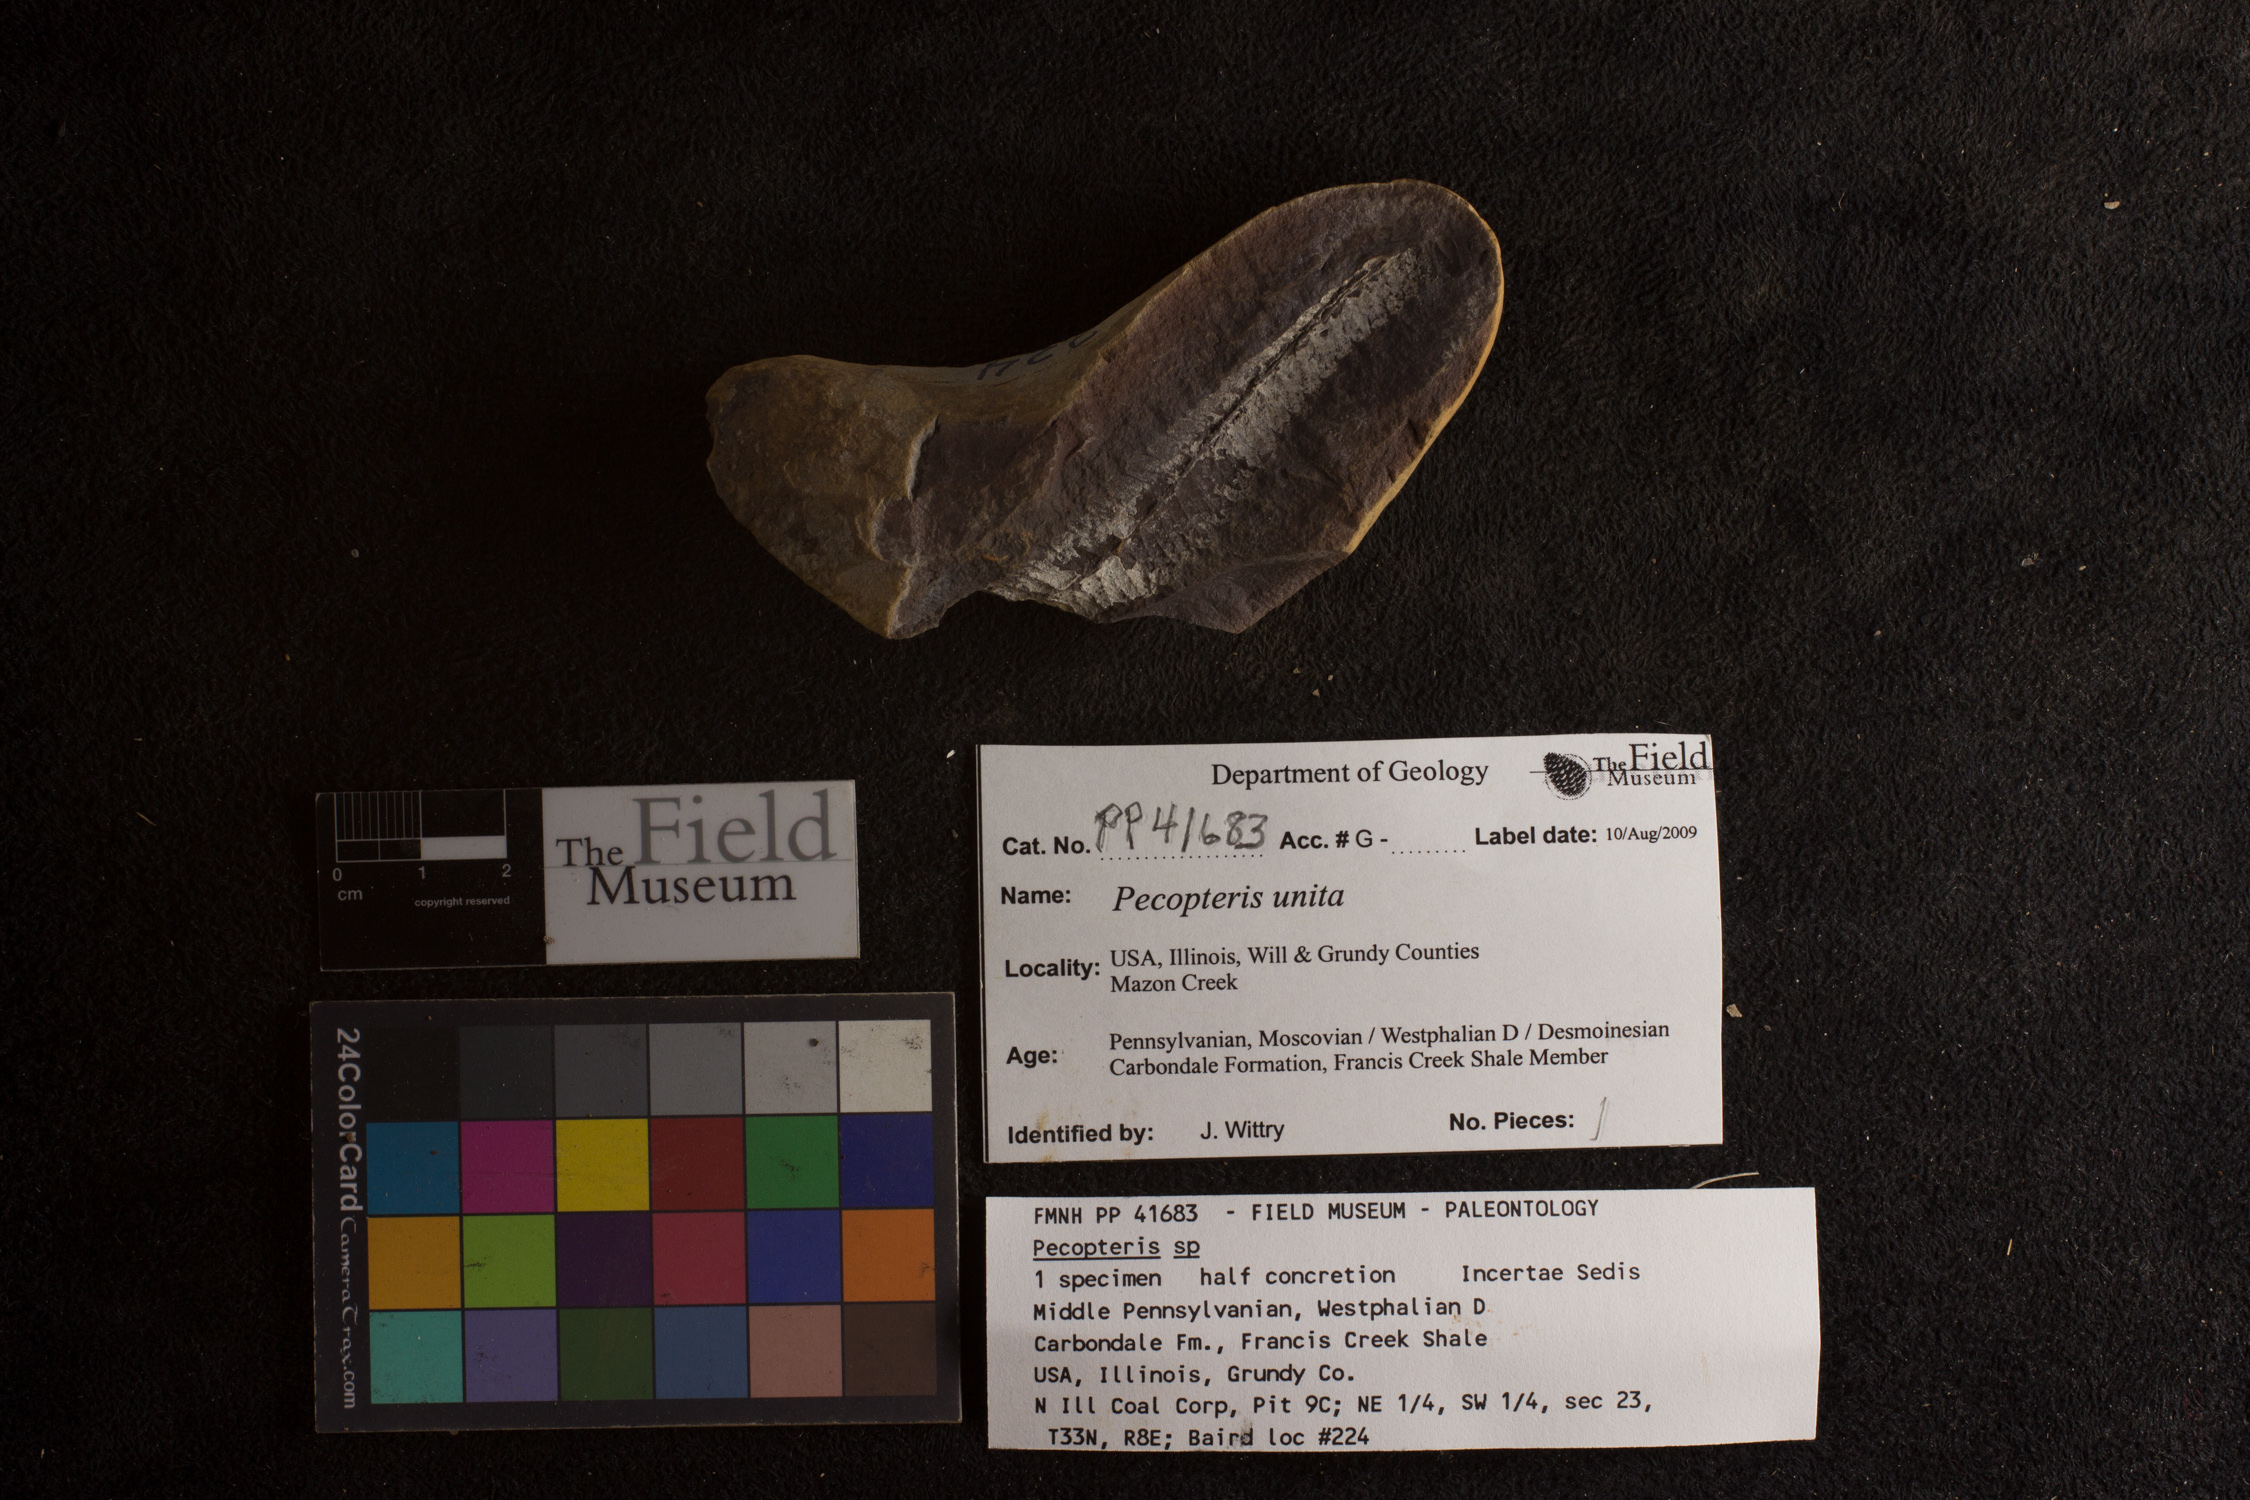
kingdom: Plantae
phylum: Tracheophyta
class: Polypodiopsida
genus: Diplazites
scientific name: Diplazites
